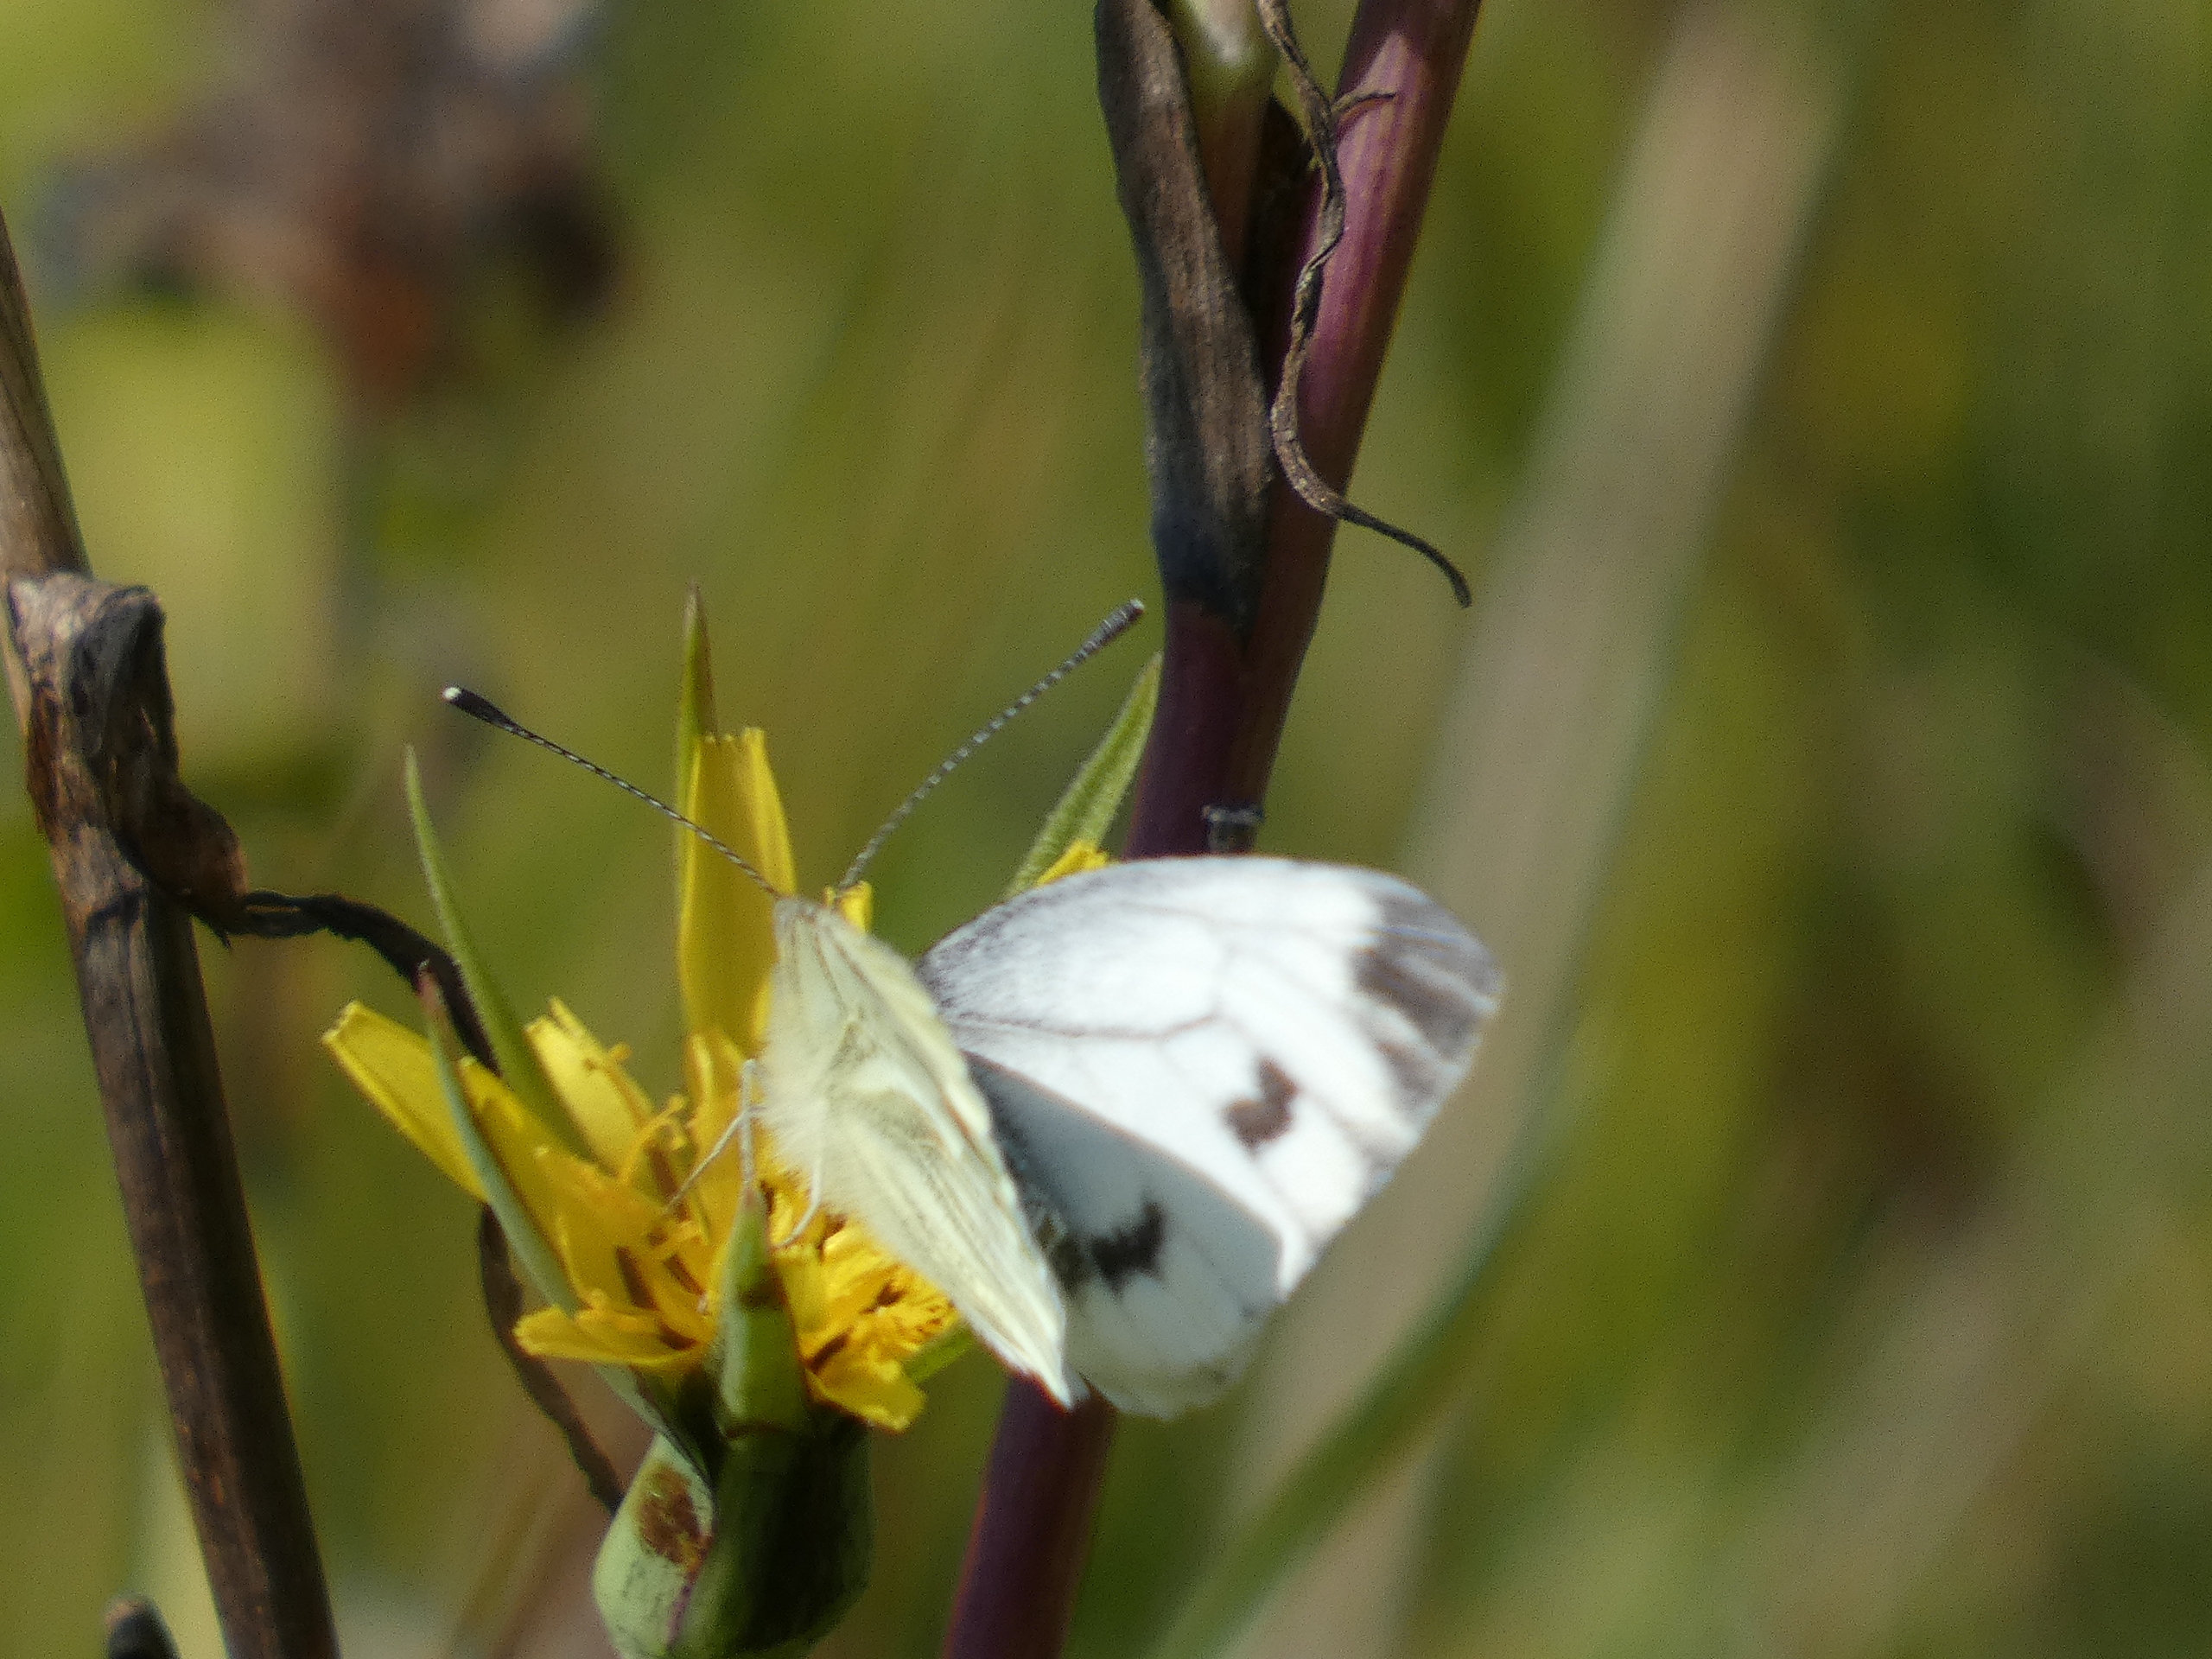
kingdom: Plantae
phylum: Tracheophyta
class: Magnoliopsida
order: Asterales
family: Asteraceae
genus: Tragopogon
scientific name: Tragopogon minor
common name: Småkronet gedeskæg
